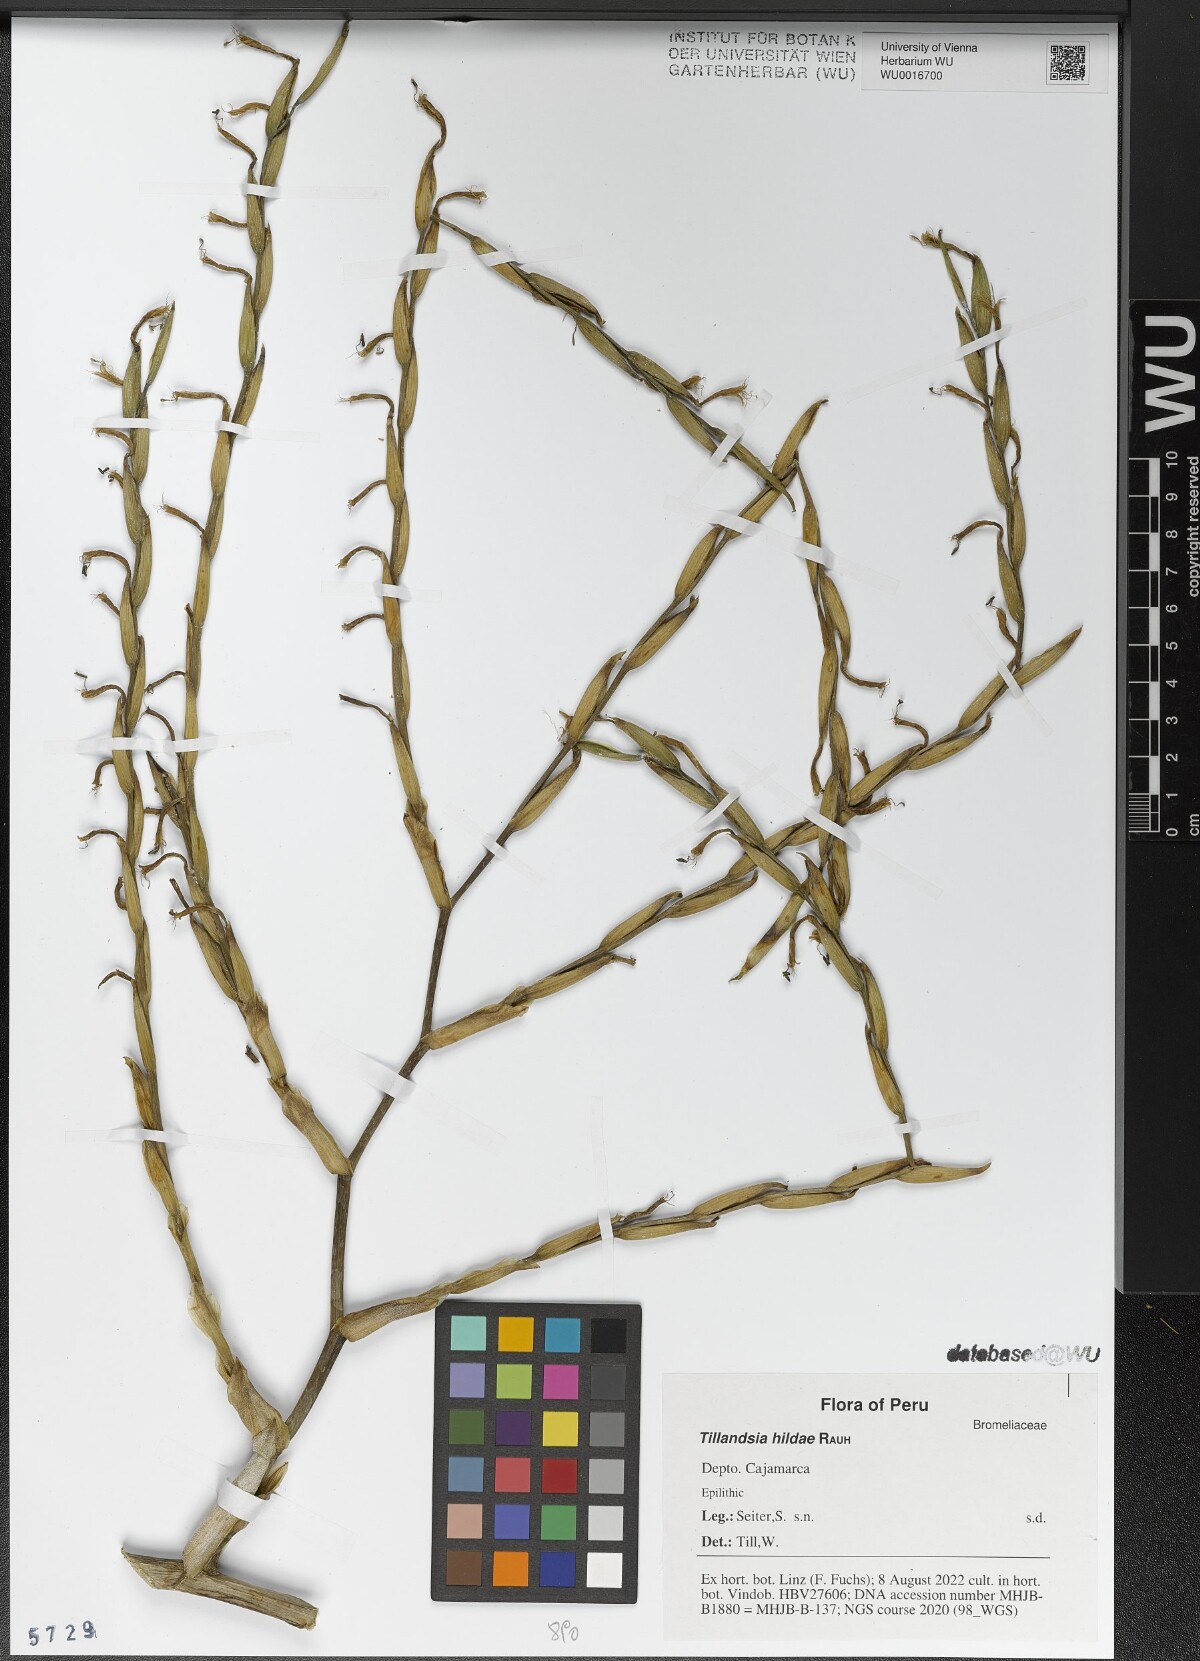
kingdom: Plantae
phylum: Tracheophyta
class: Liliopsida
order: Poales
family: Bromeliaceae
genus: Tillandsia
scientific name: Tillandsia hildae
